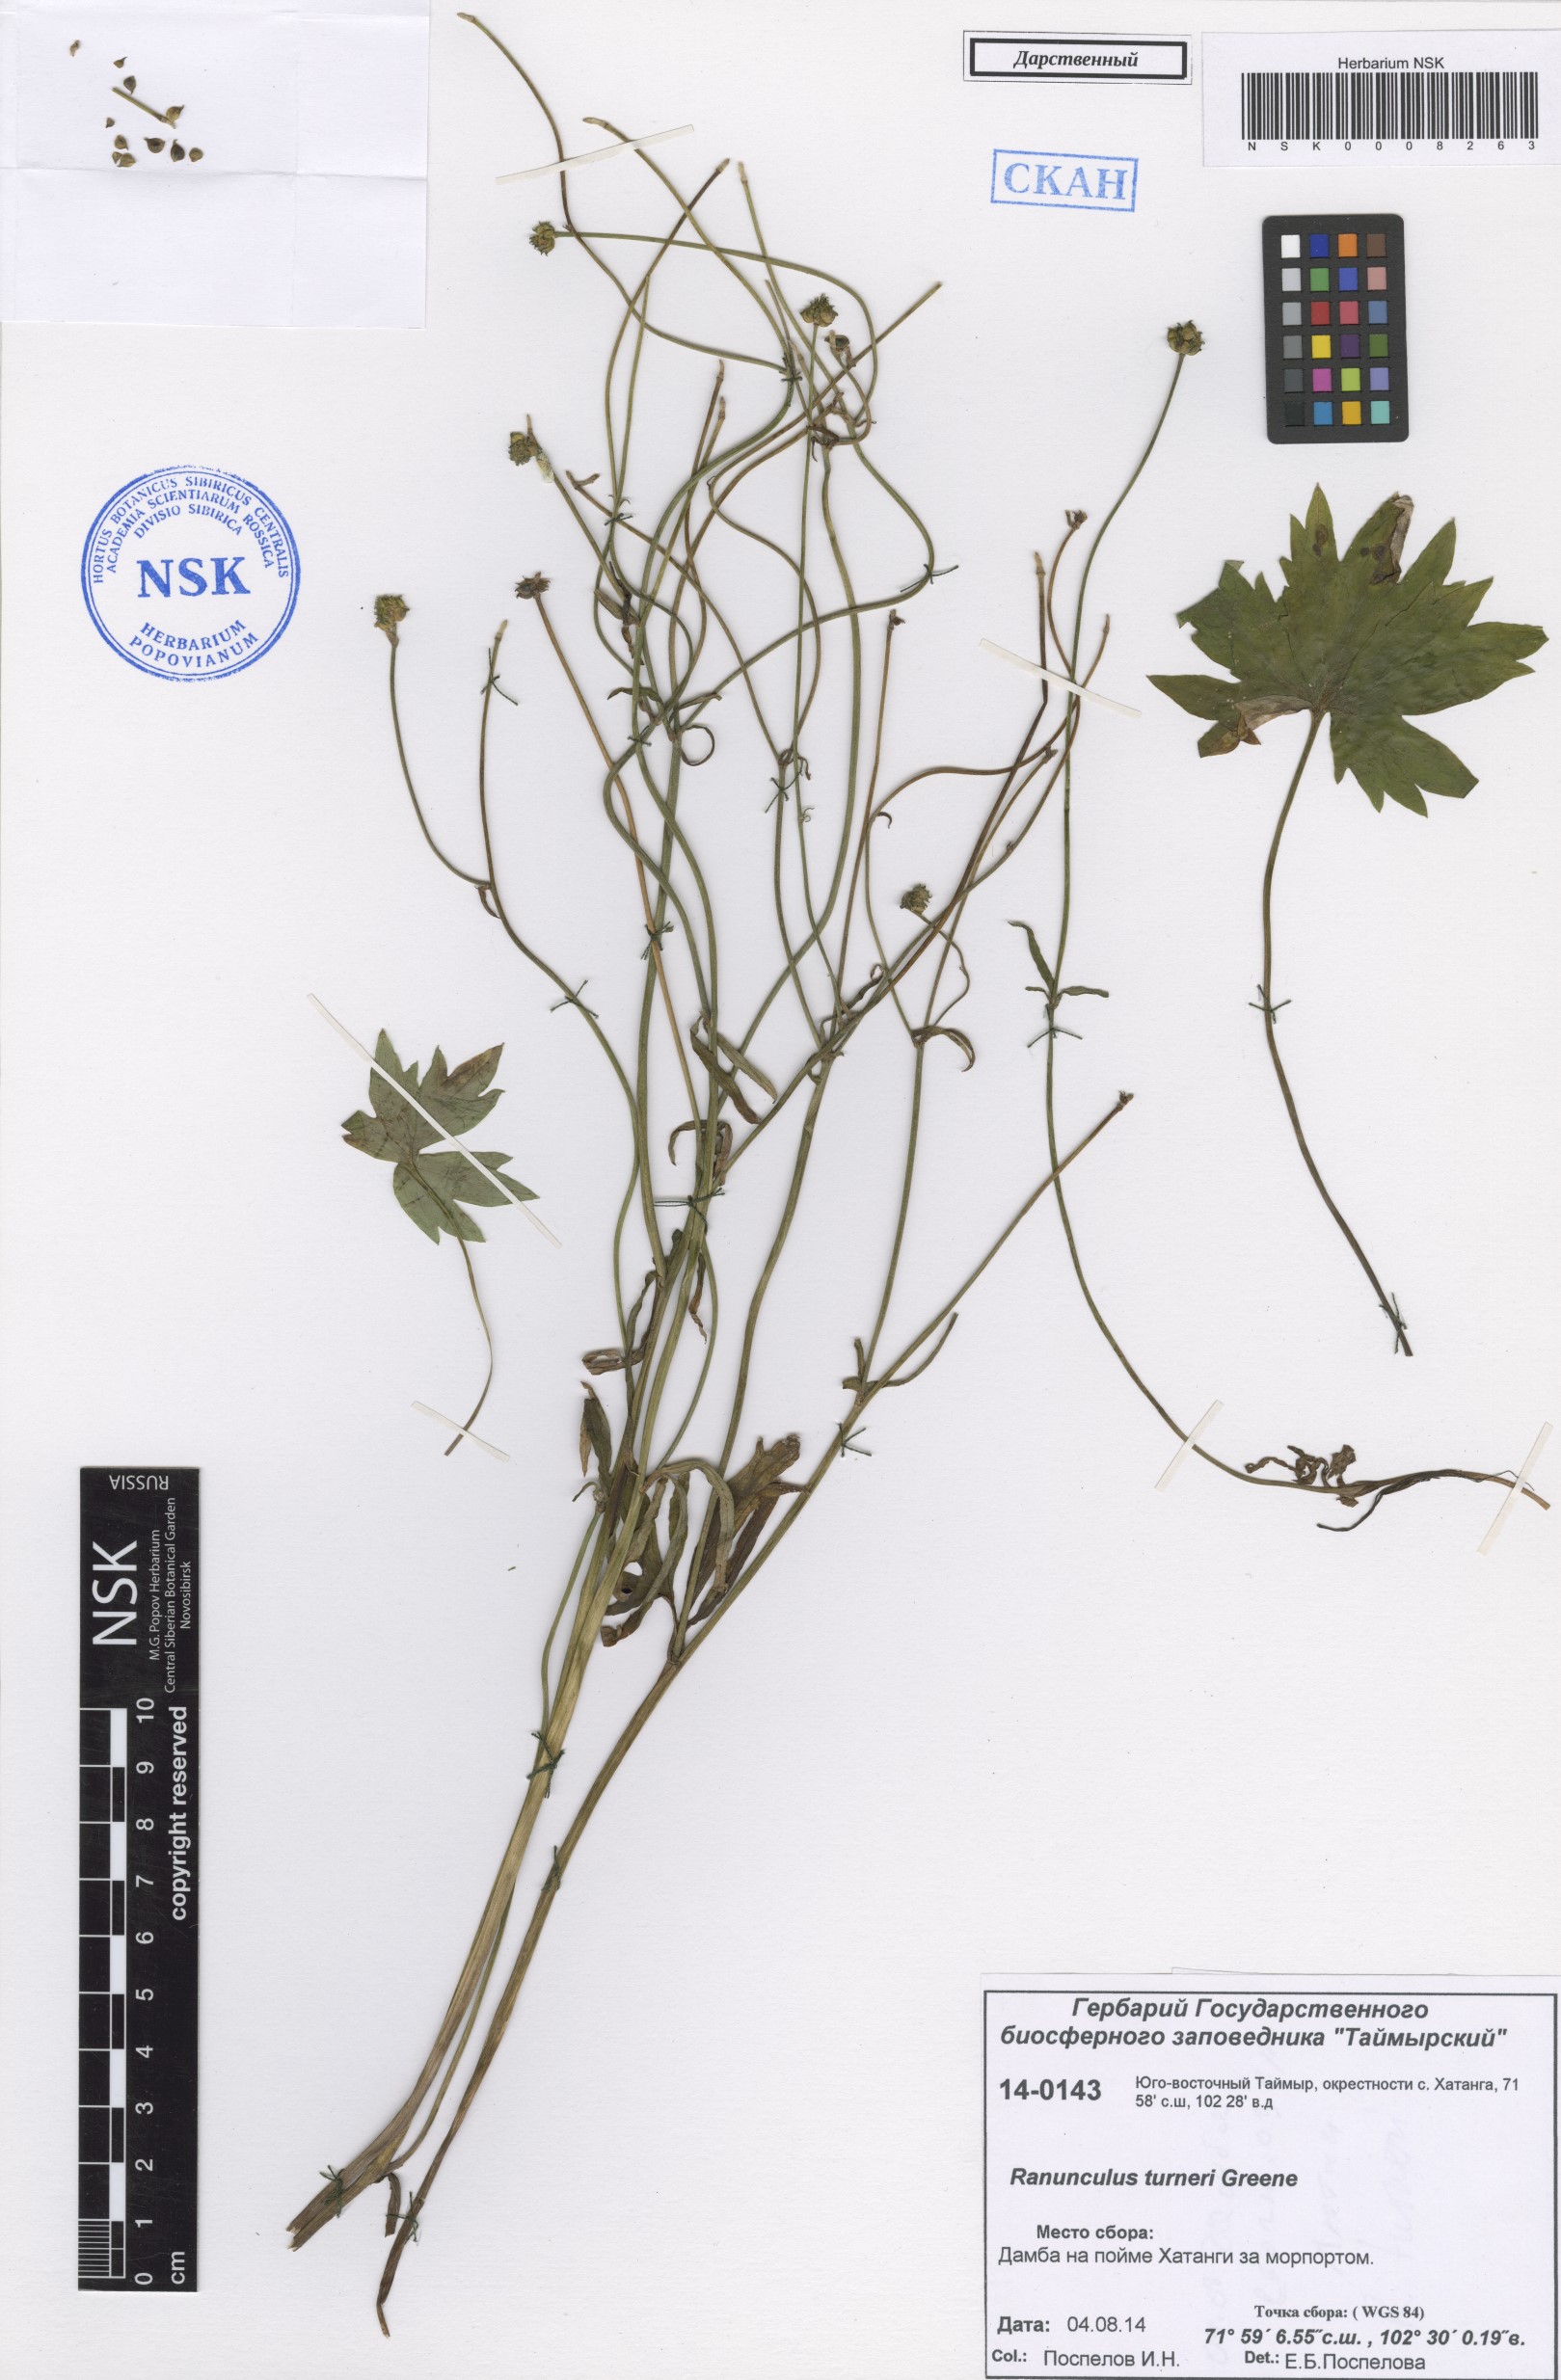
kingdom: Plantae
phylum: Tracheophyta
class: Magnoliopsida
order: Ranunculales
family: Ranunculaceae
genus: Ranunculus
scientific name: Ranunculus turneri
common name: Turner's buttercup
